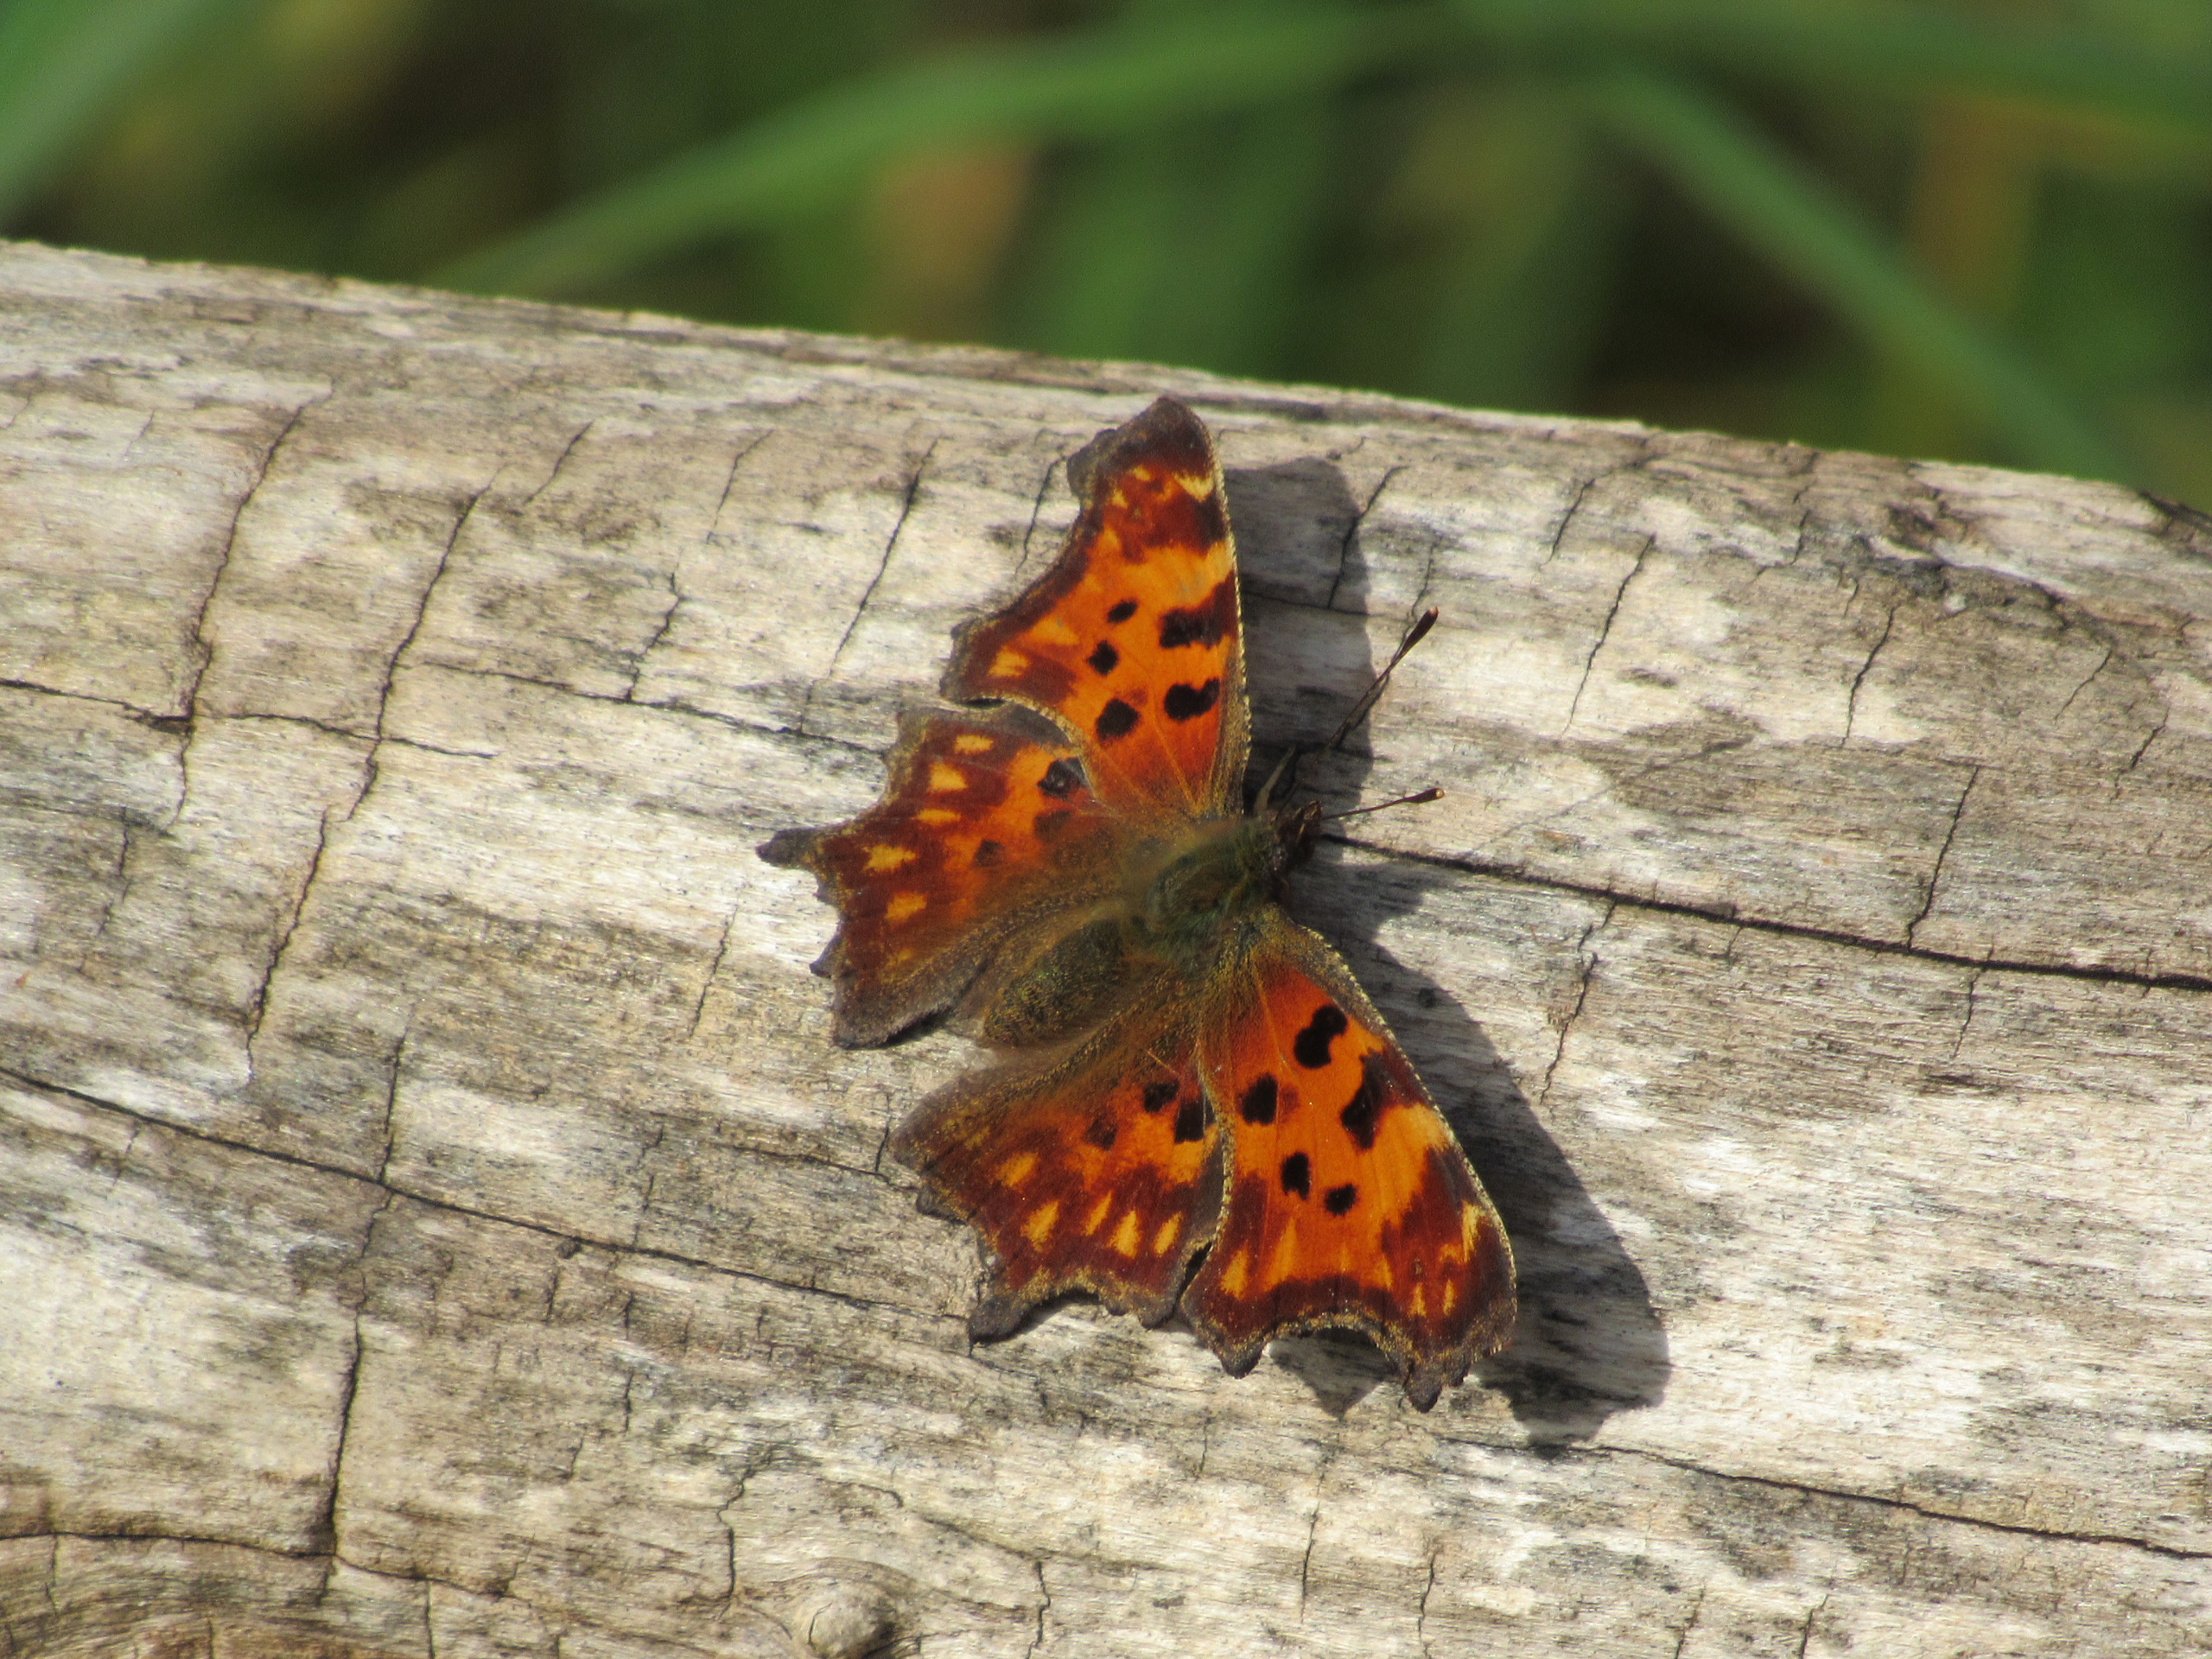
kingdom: Animalia
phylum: Arthropoda
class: Insecta
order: Lepidoptera
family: Nymphalidae
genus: Polygonia
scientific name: Polygonia c-album
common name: Det hvide C
